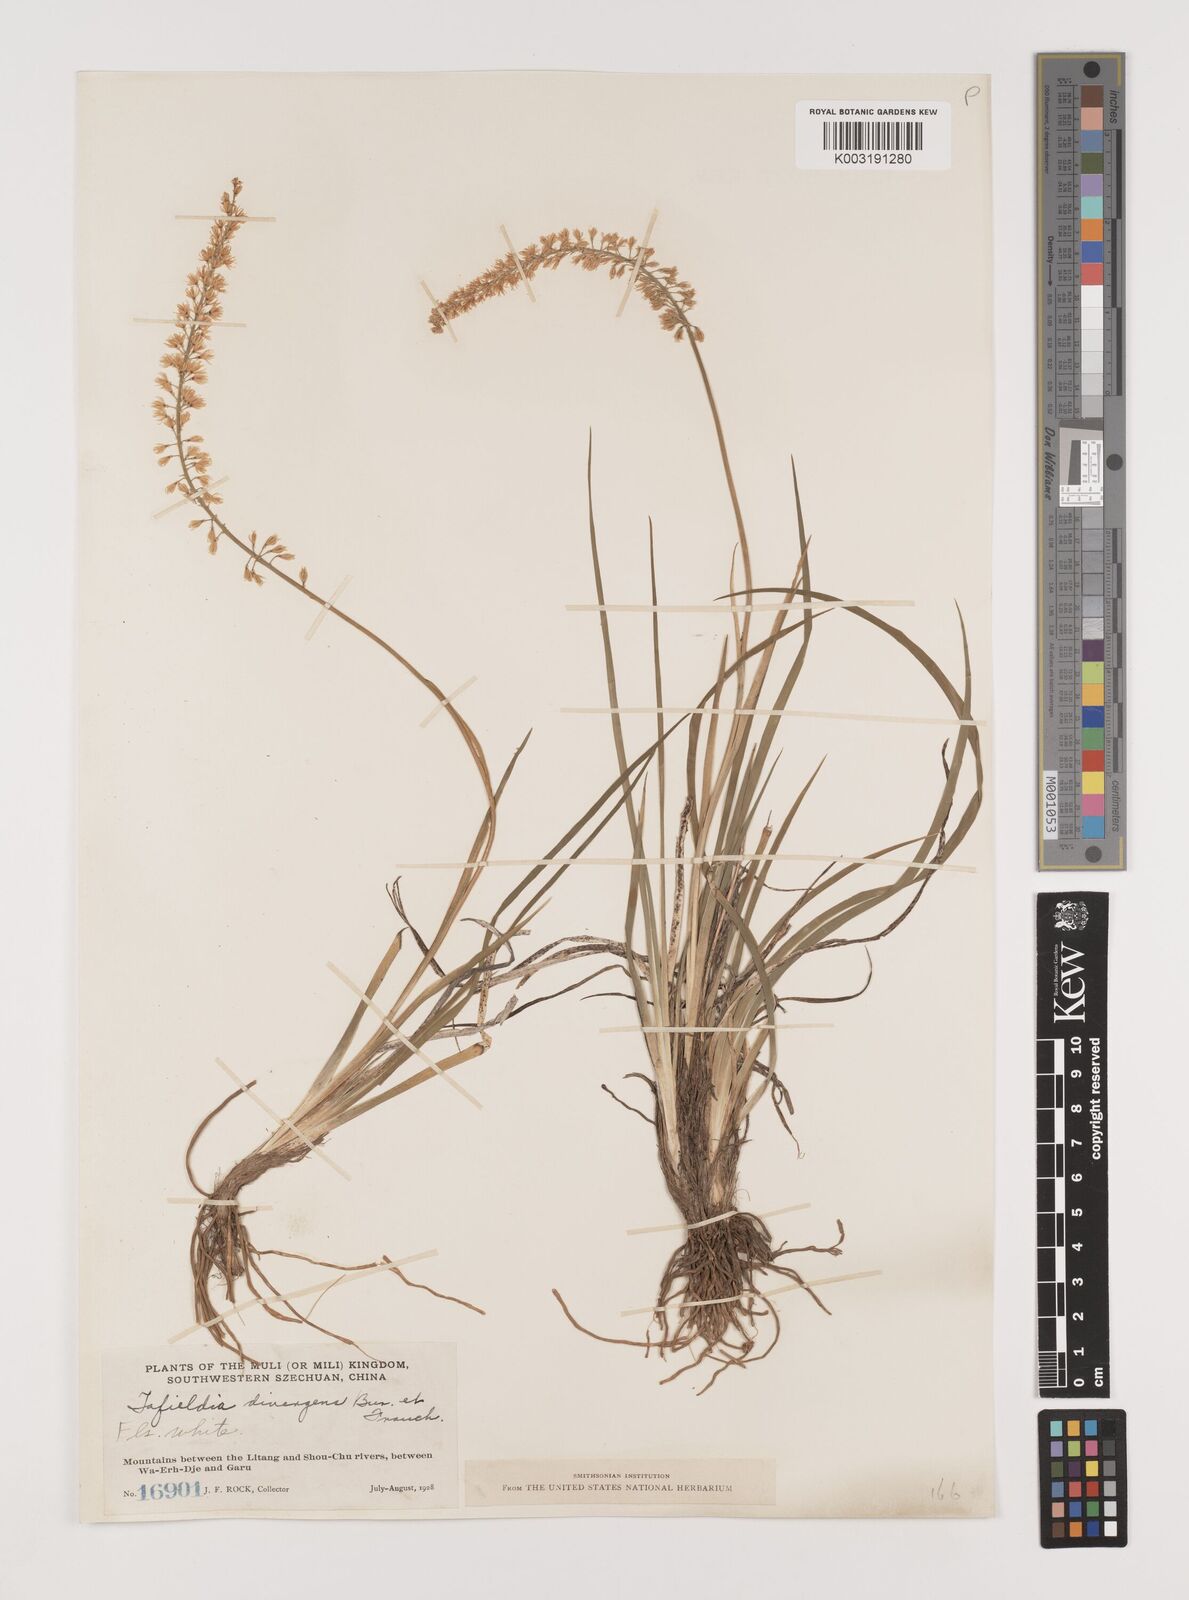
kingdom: Plantae
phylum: Tracheophyta
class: Liliopsida
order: Alismatales
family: Tofieldiaceae
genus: Tofieldia
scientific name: Tofieldia divergens
